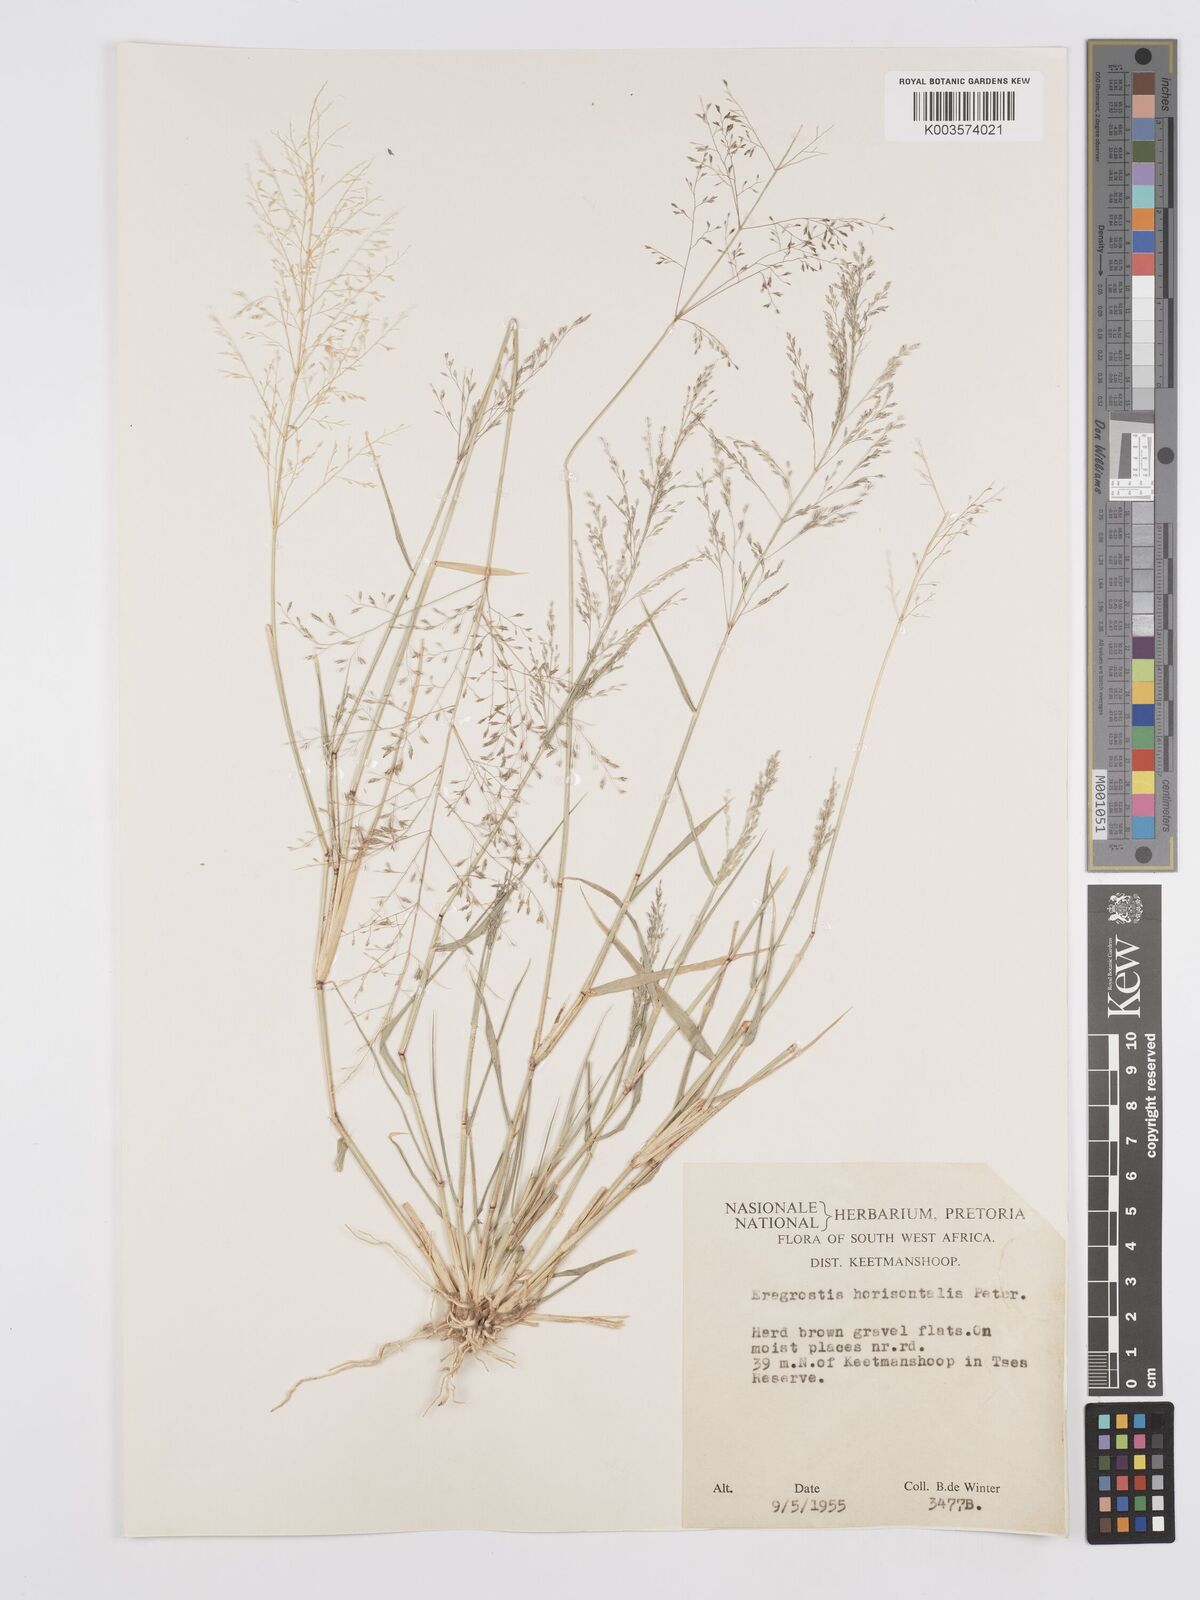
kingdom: Plantae
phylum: Tracheophyta
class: Liliopsida
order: Poales
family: Poaceae
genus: Eragrostis
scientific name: Eragrostis cylindriflora
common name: Cylinderflower lovegrass
